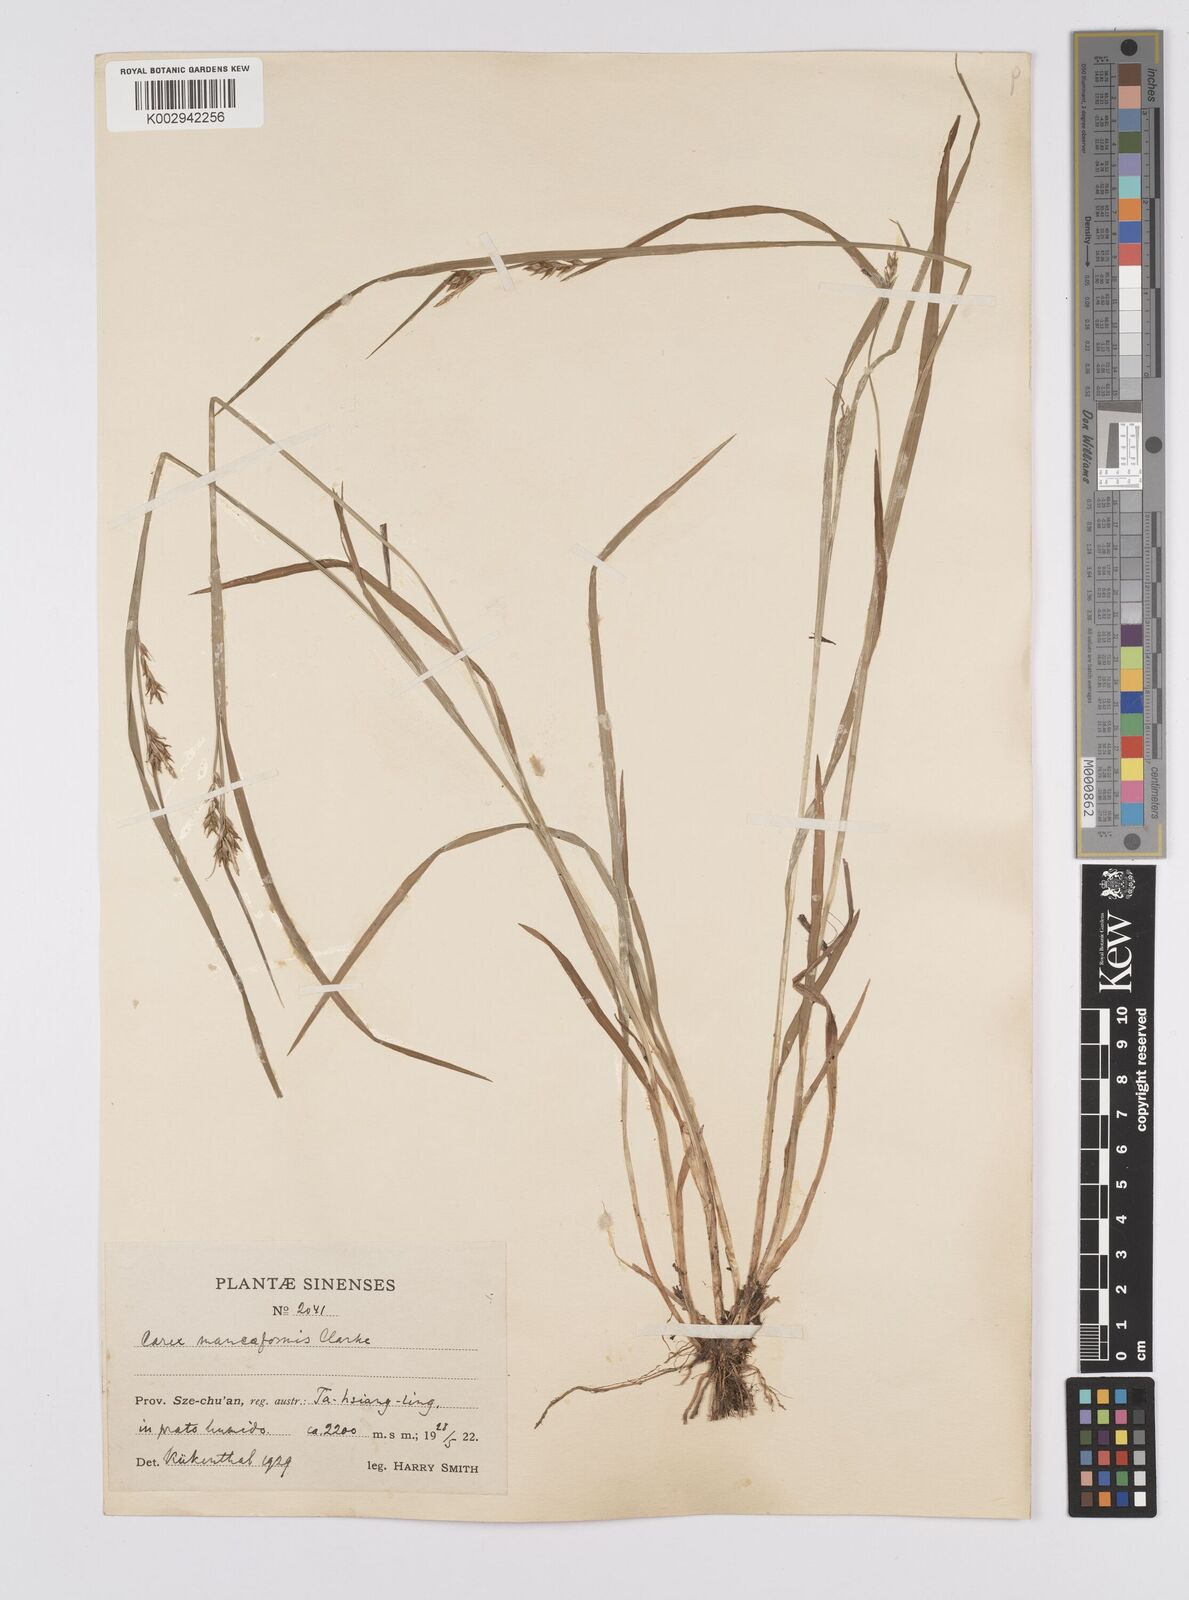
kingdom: Plantae
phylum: Tracheophyta
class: Liliopsida
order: Poales
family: Cyperaceae
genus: Carex
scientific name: Carex manciformis
